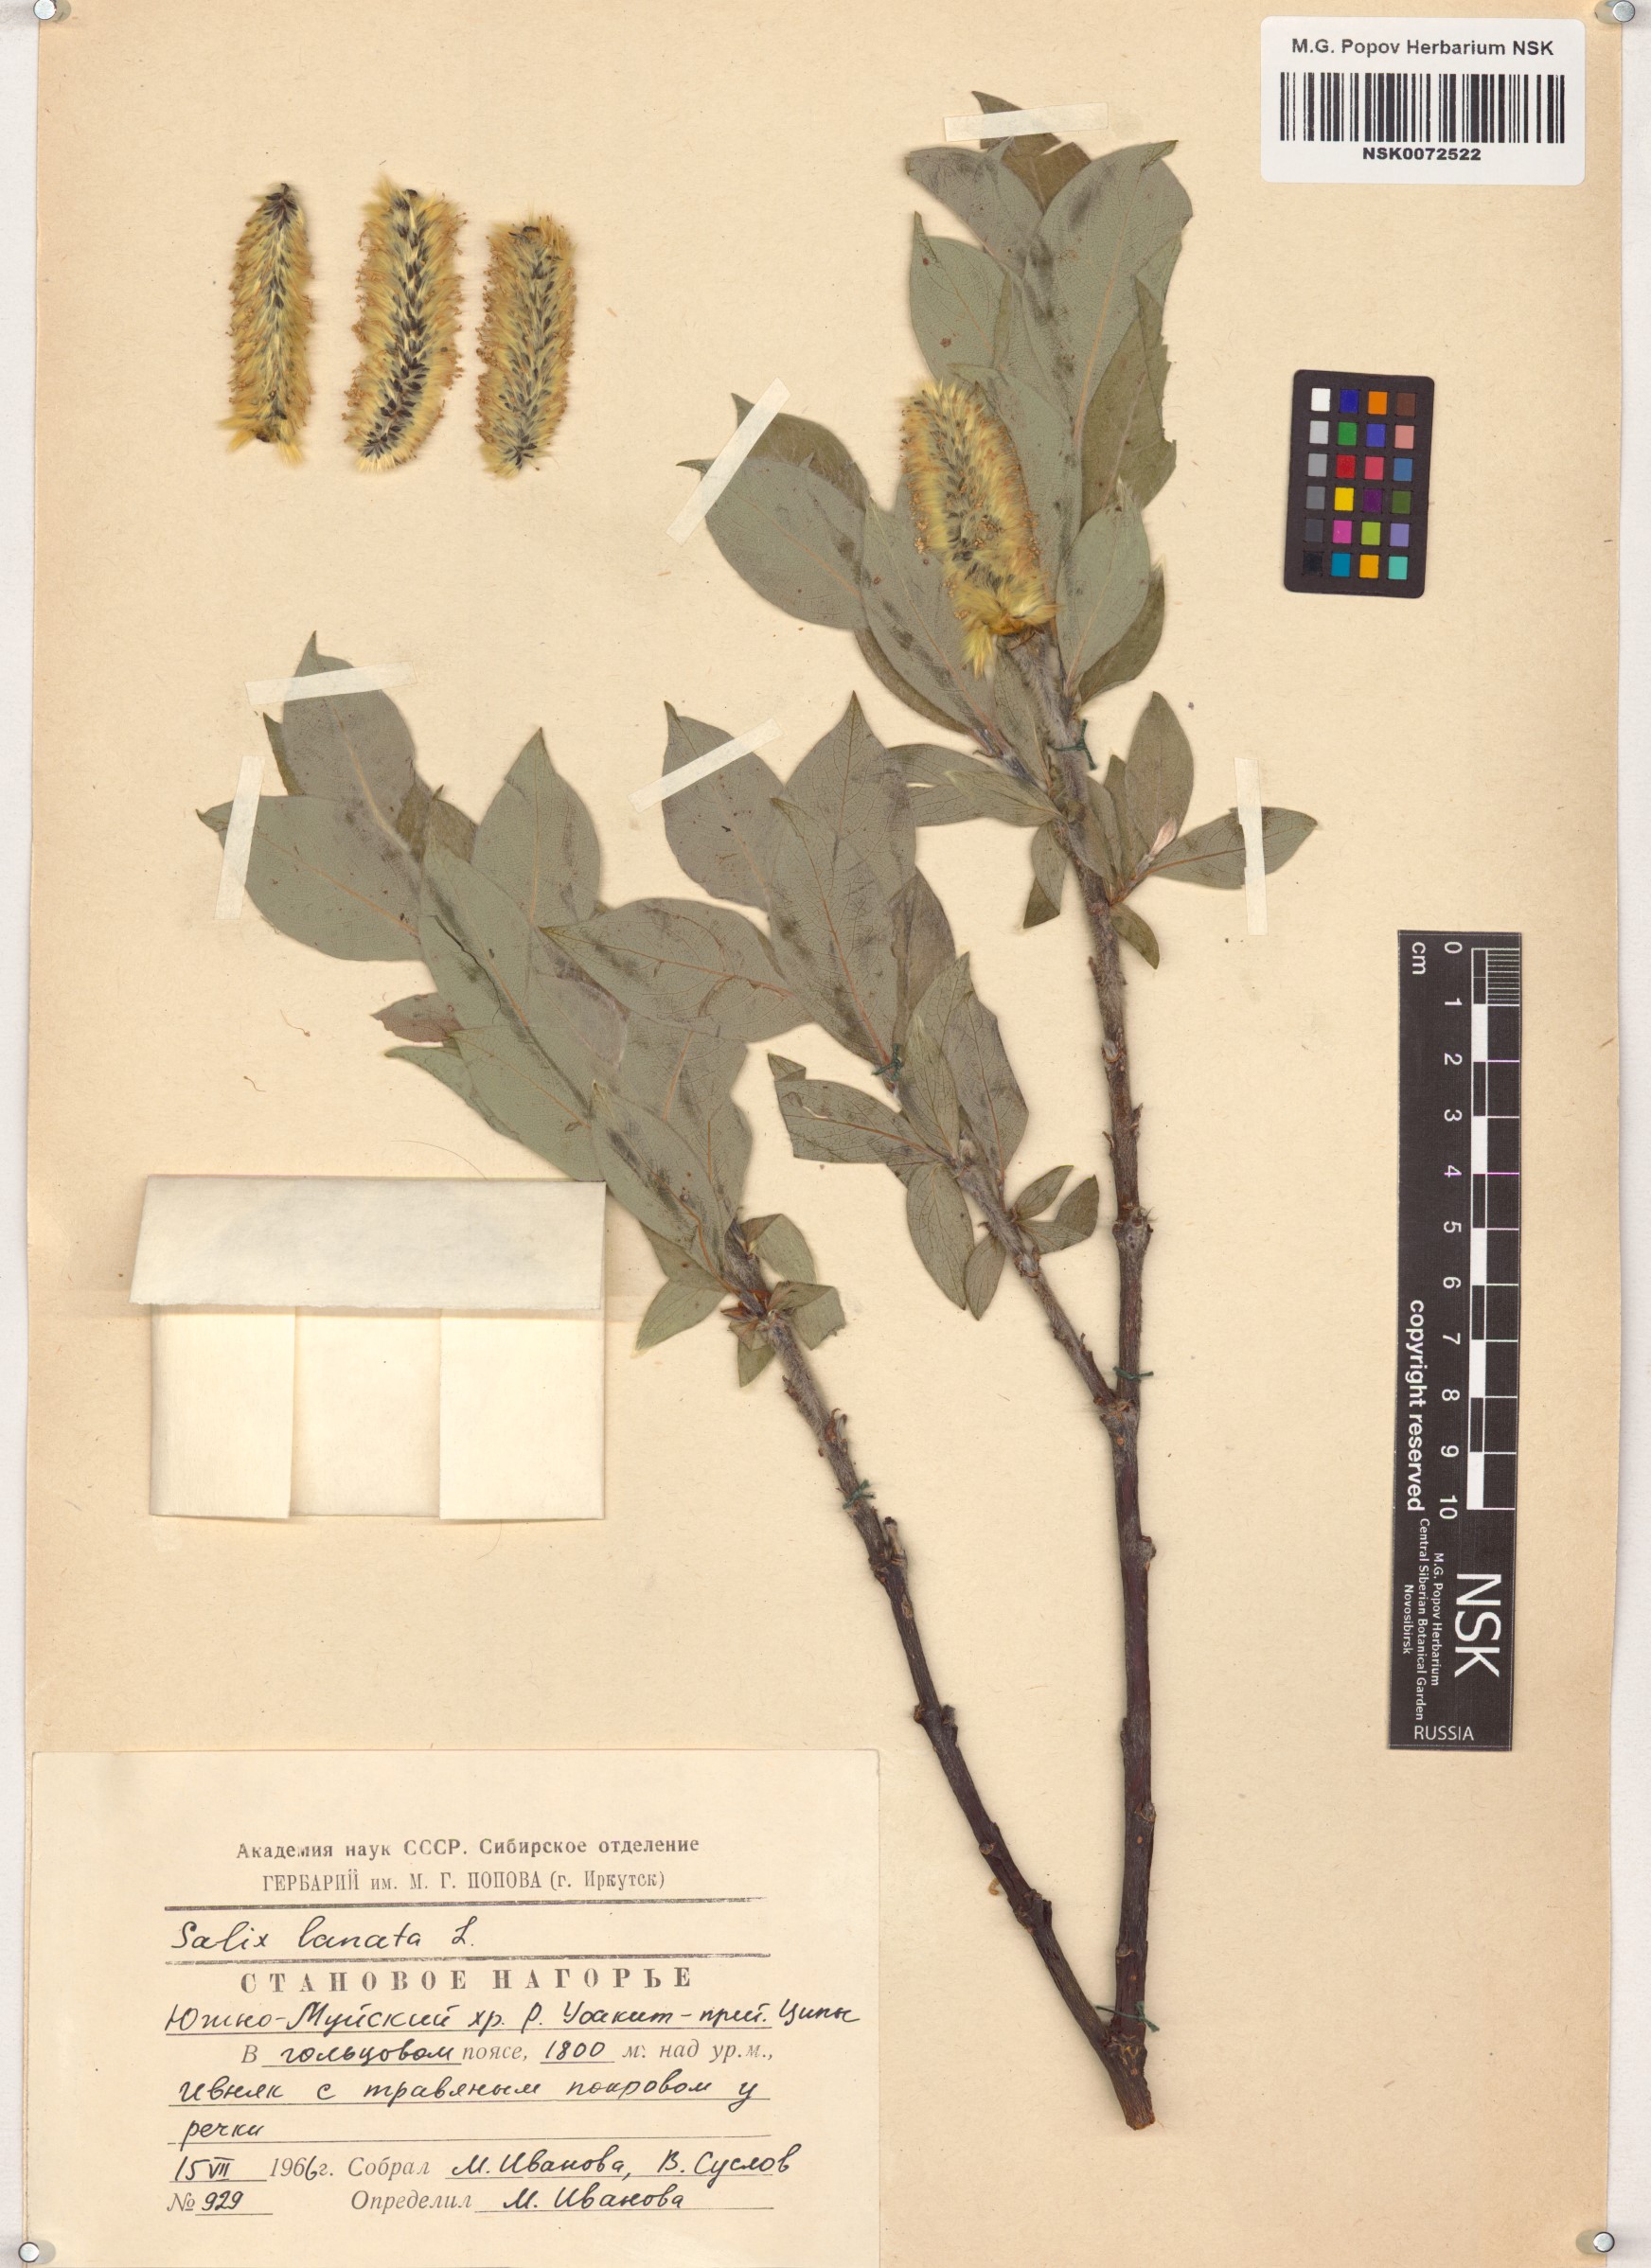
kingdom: Plantae
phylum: Tracheophyta
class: Magnoliopsida
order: Malpighiales
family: Salicaceae
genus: Salix
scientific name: Salix lanata
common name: Woolly willow
